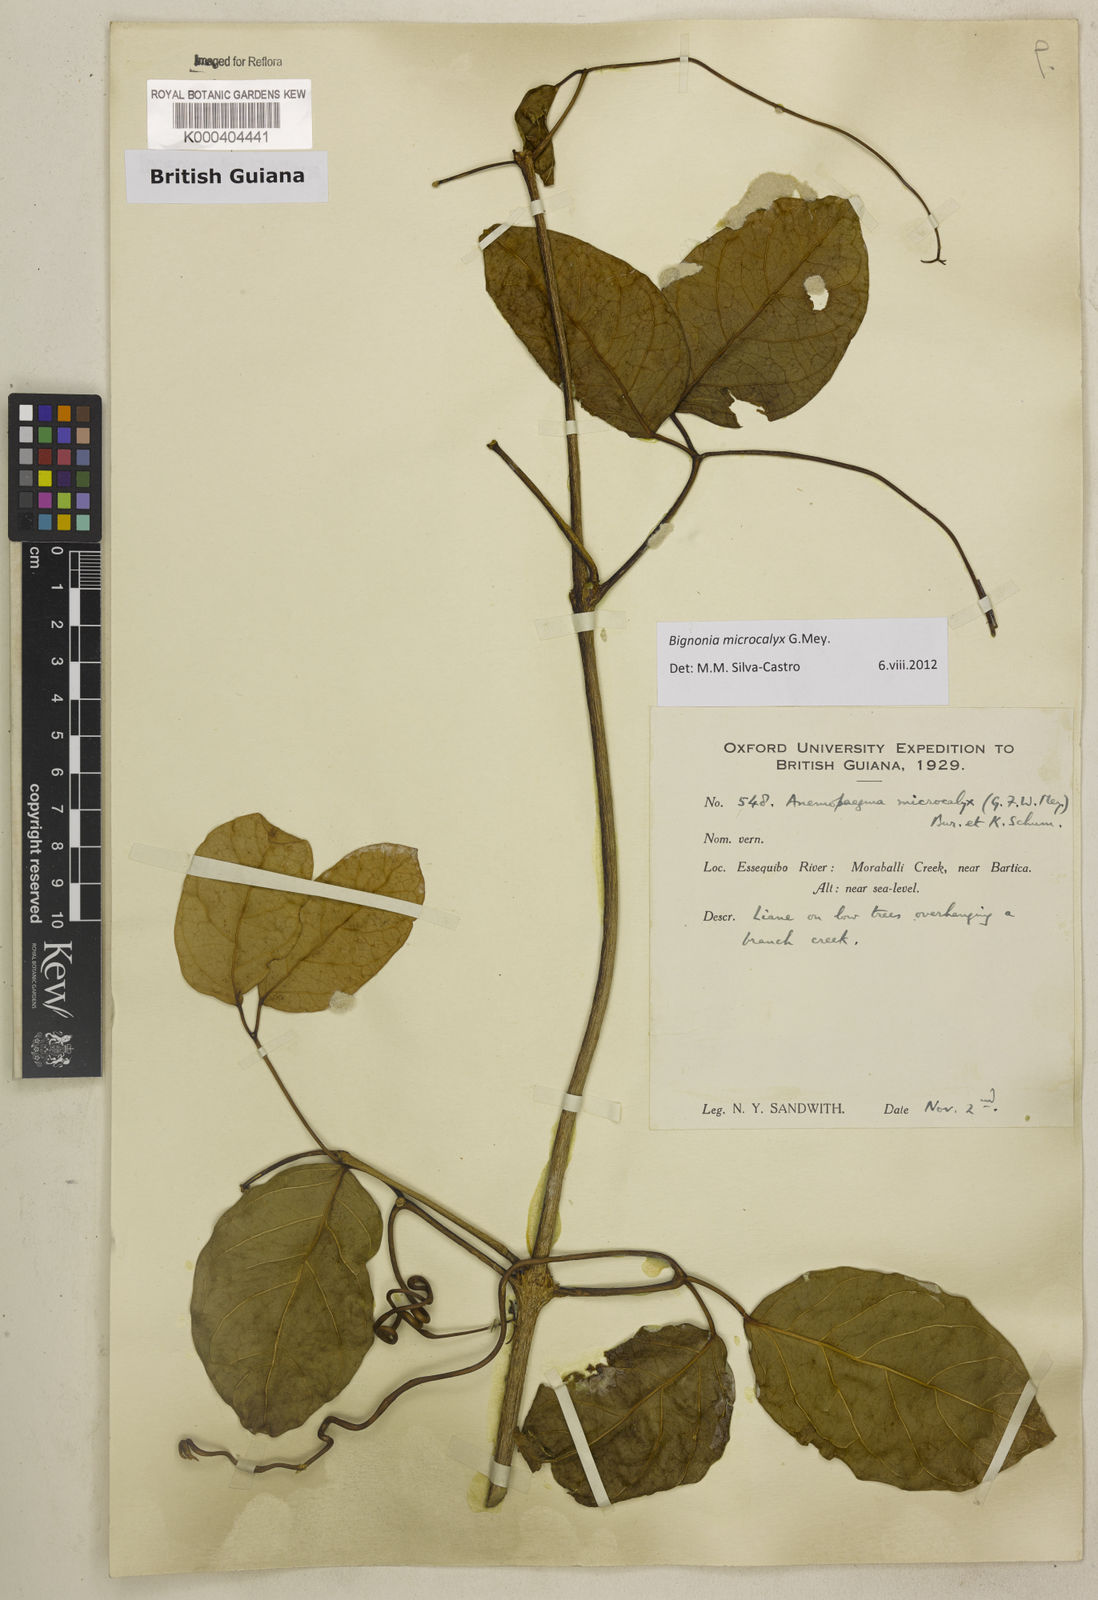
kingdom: Plantae
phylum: Tracheophyta
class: Magnoliopsida
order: Lamiales
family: Bignoniaceae
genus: Bignonia
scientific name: Bignonia microcalyx
